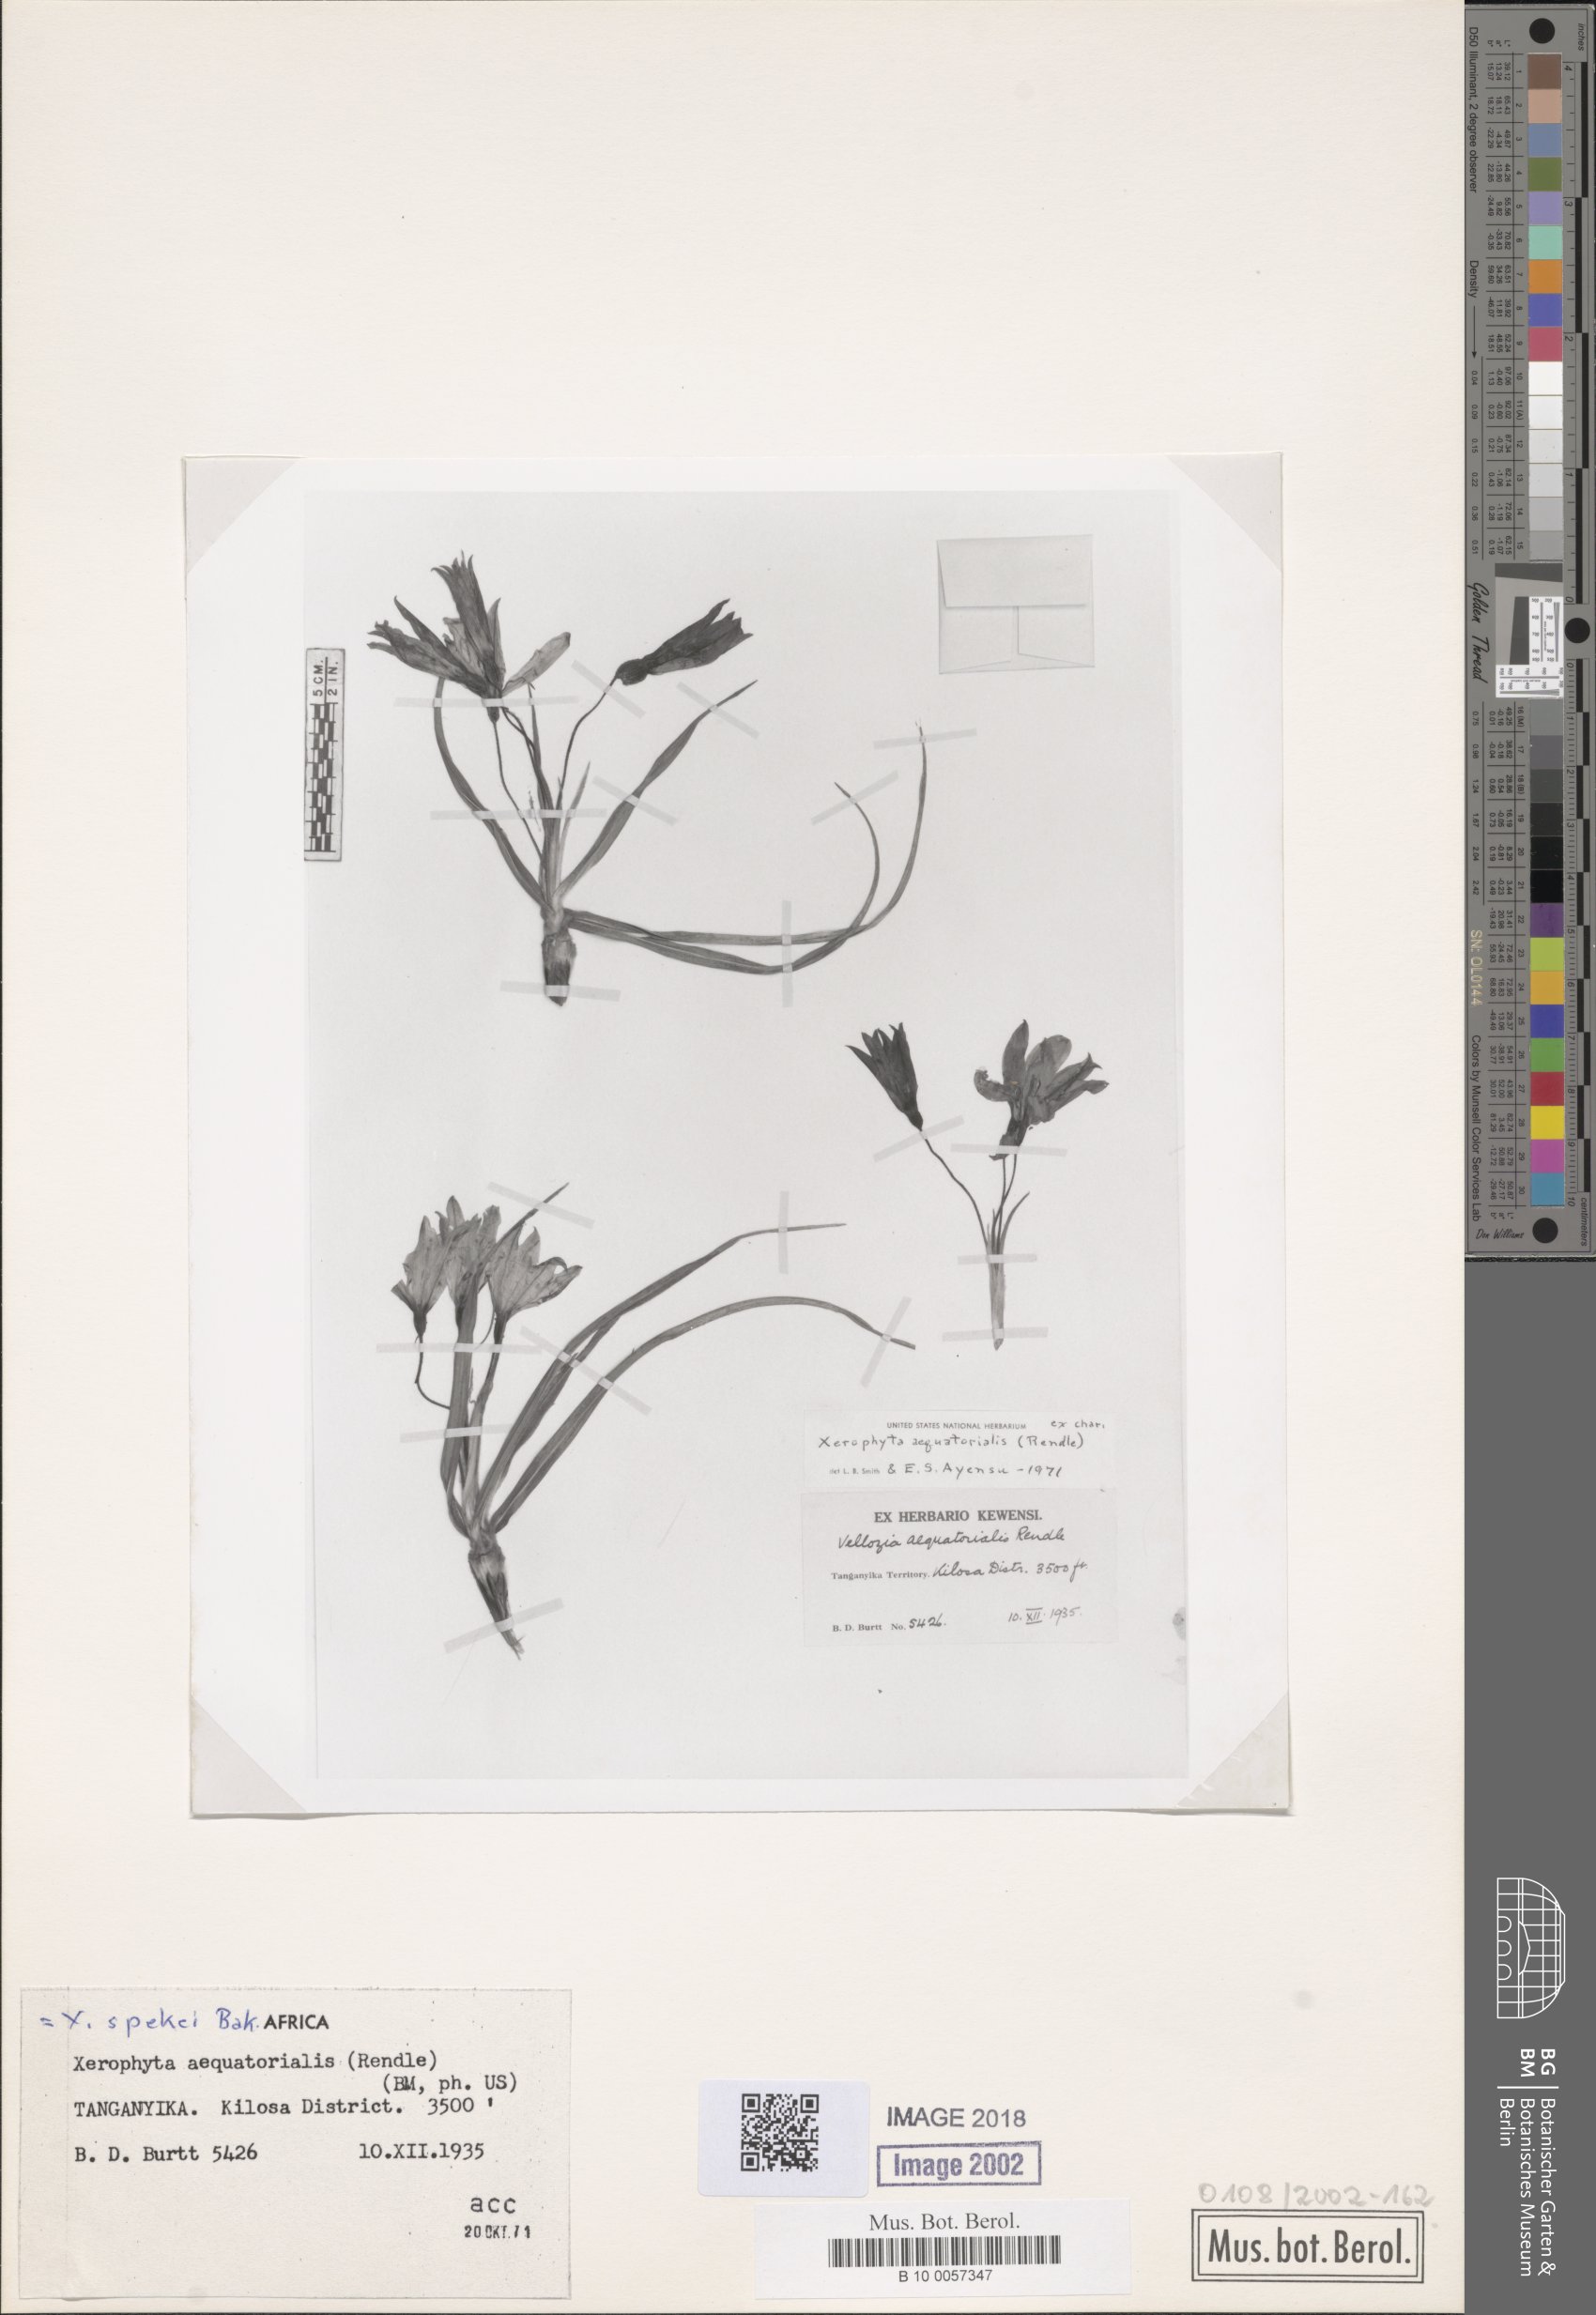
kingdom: Plantae
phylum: Tracheophyta
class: Liliopsida
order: Pandanales
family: Velloziaceae
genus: Xerophyta
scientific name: Xerophyta spekei
